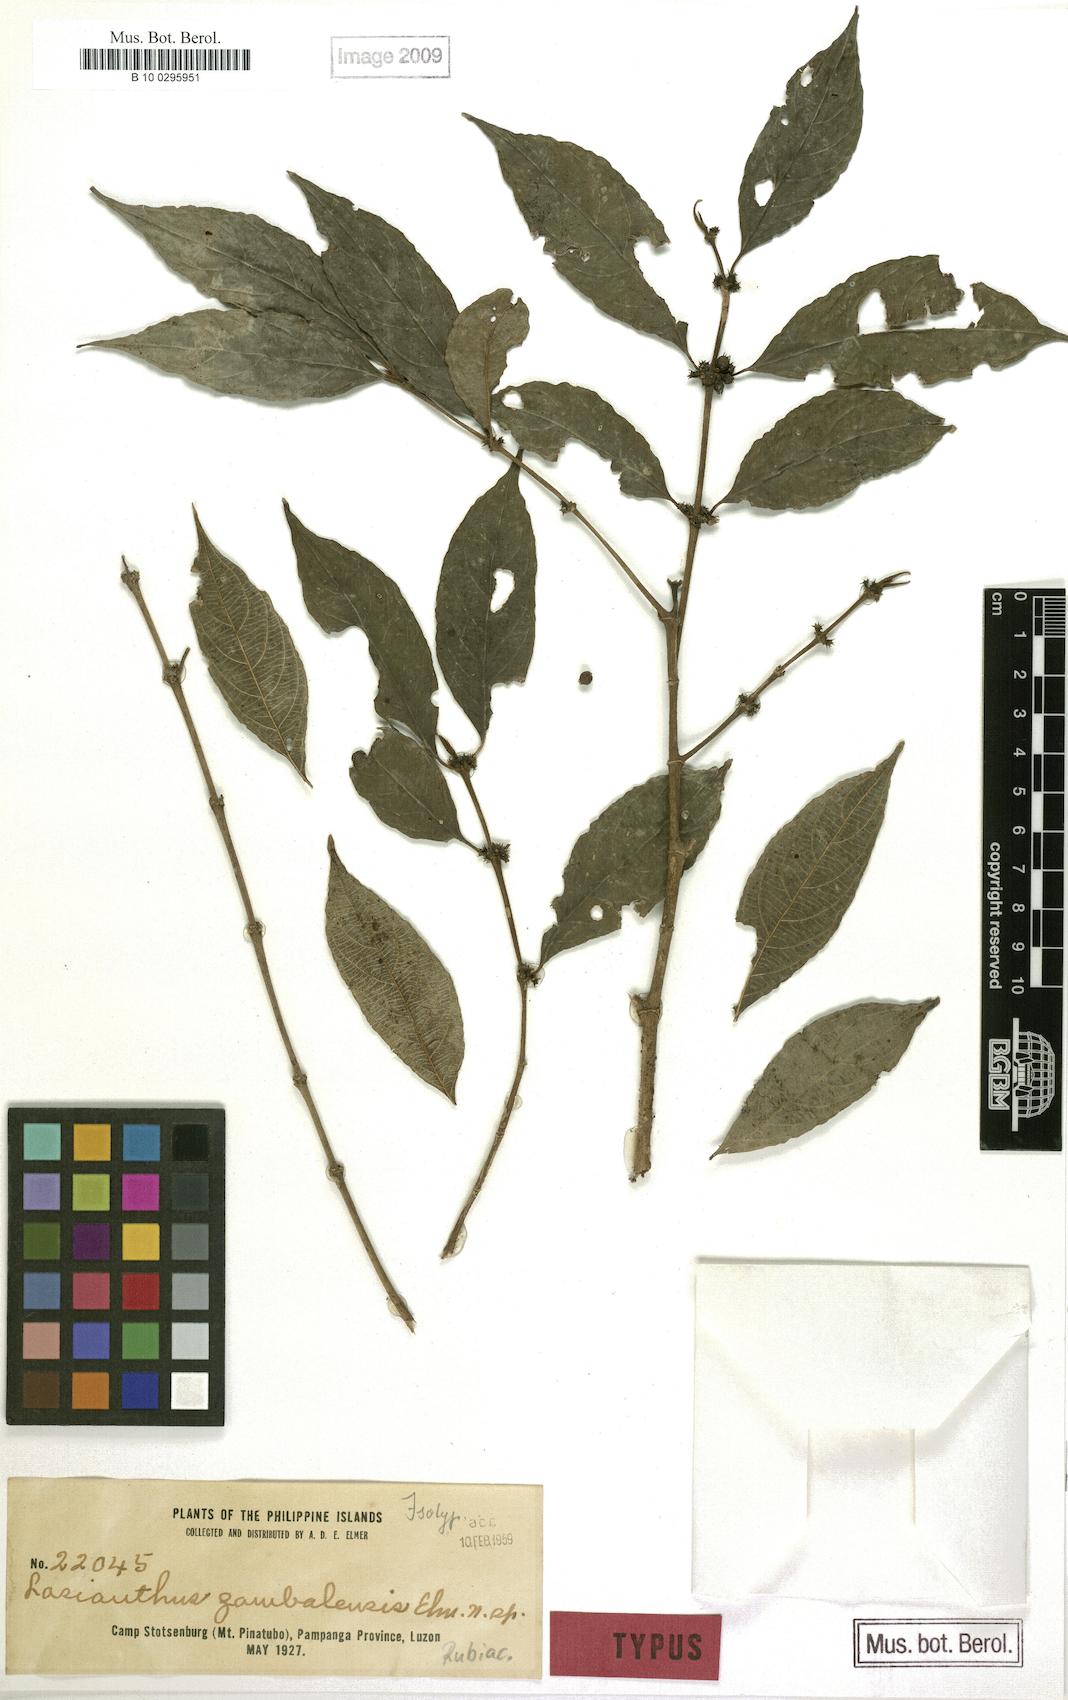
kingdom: Plantae
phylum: Tracheophyta
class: Magnoliopsida
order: Gentianales
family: Rubiaceae
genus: Lasianthus
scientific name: Lasianthus
